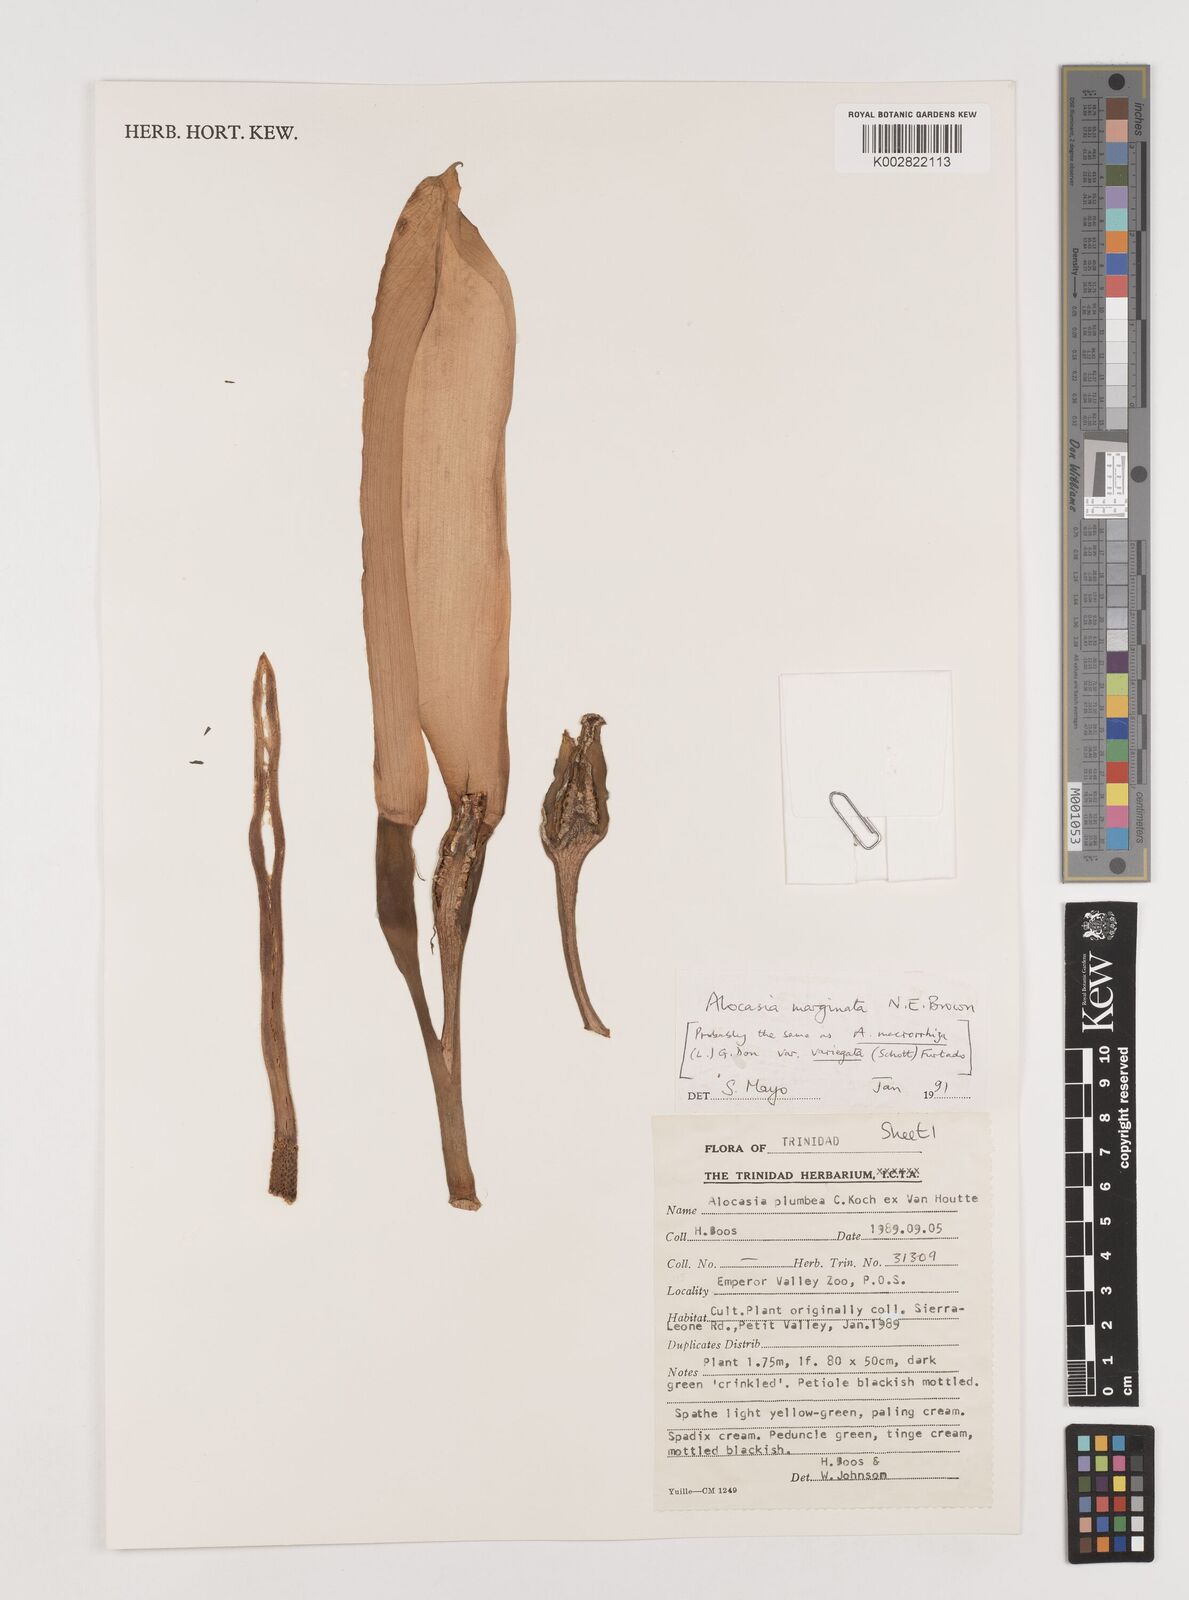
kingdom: Plantae
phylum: Tracheophyta
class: Liliopsida
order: Alismatales
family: Araceae
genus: Alocasia
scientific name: Alocasia macrorrhizos
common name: Giant taro
